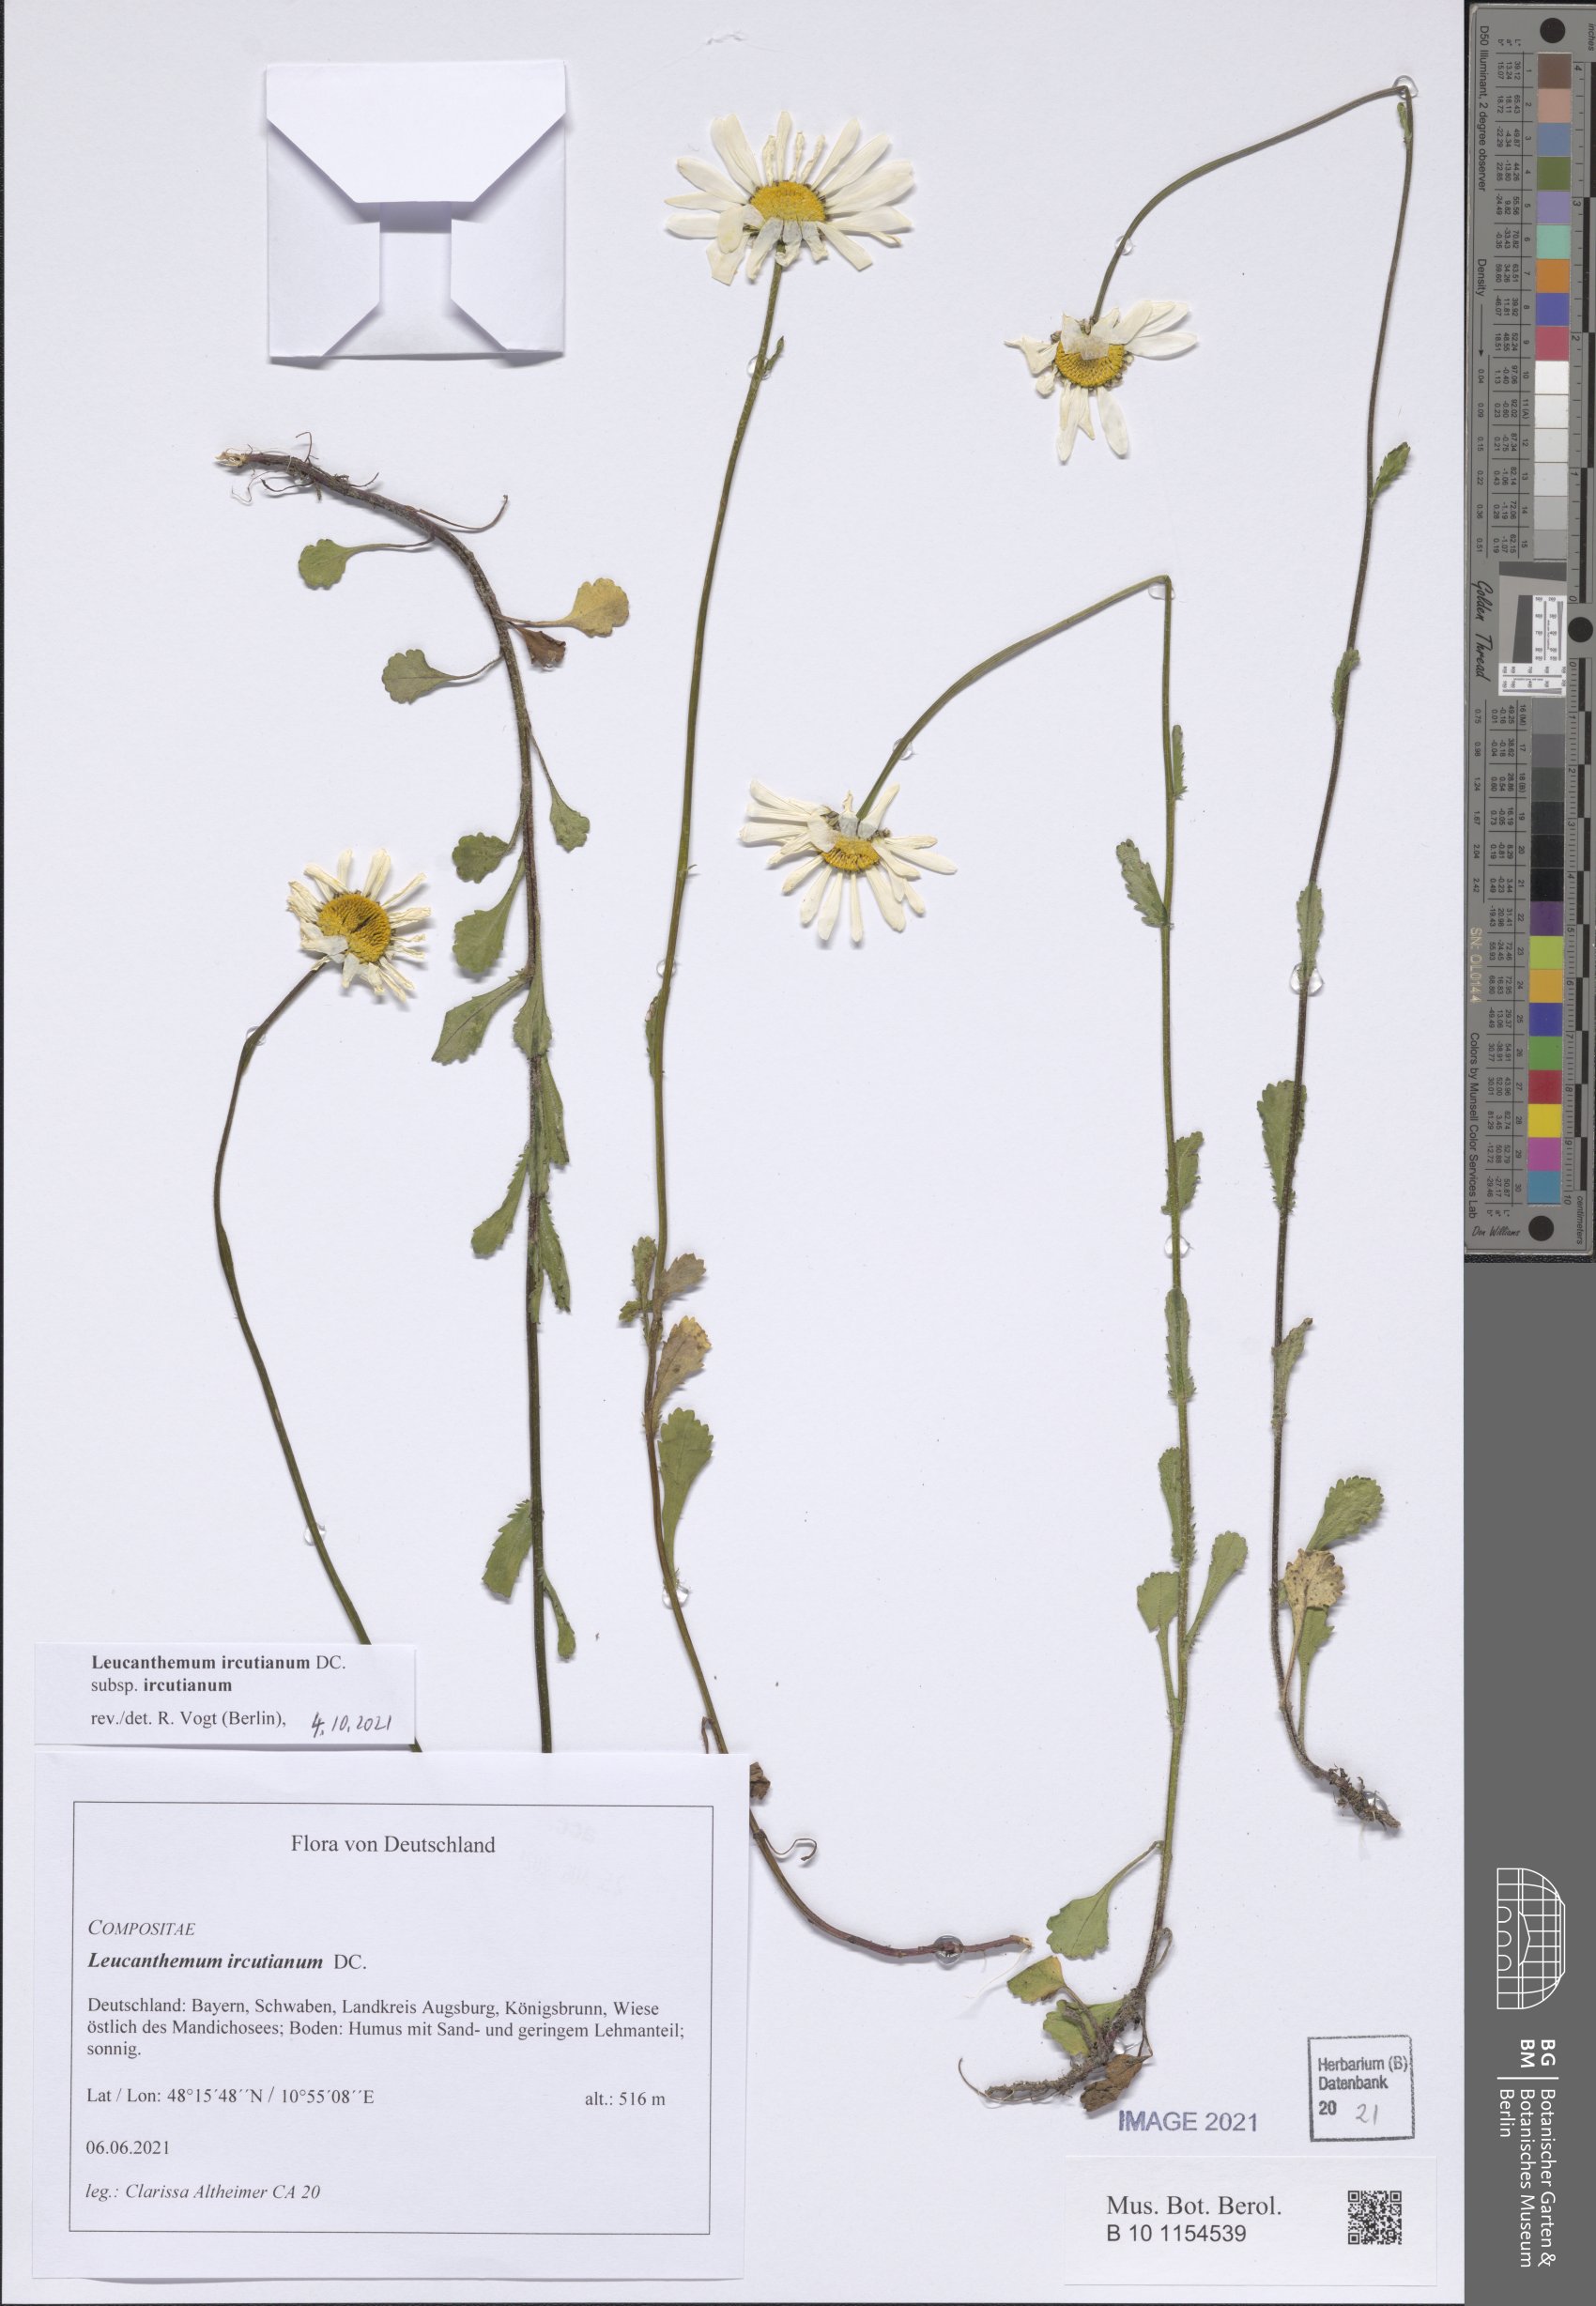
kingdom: Plantae
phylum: Tracheophyta
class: Magnoliopsida
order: Asterales
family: Asteraceae
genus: Leucanthemum
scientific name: Leucanthemum ircutianum
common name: Daisy
